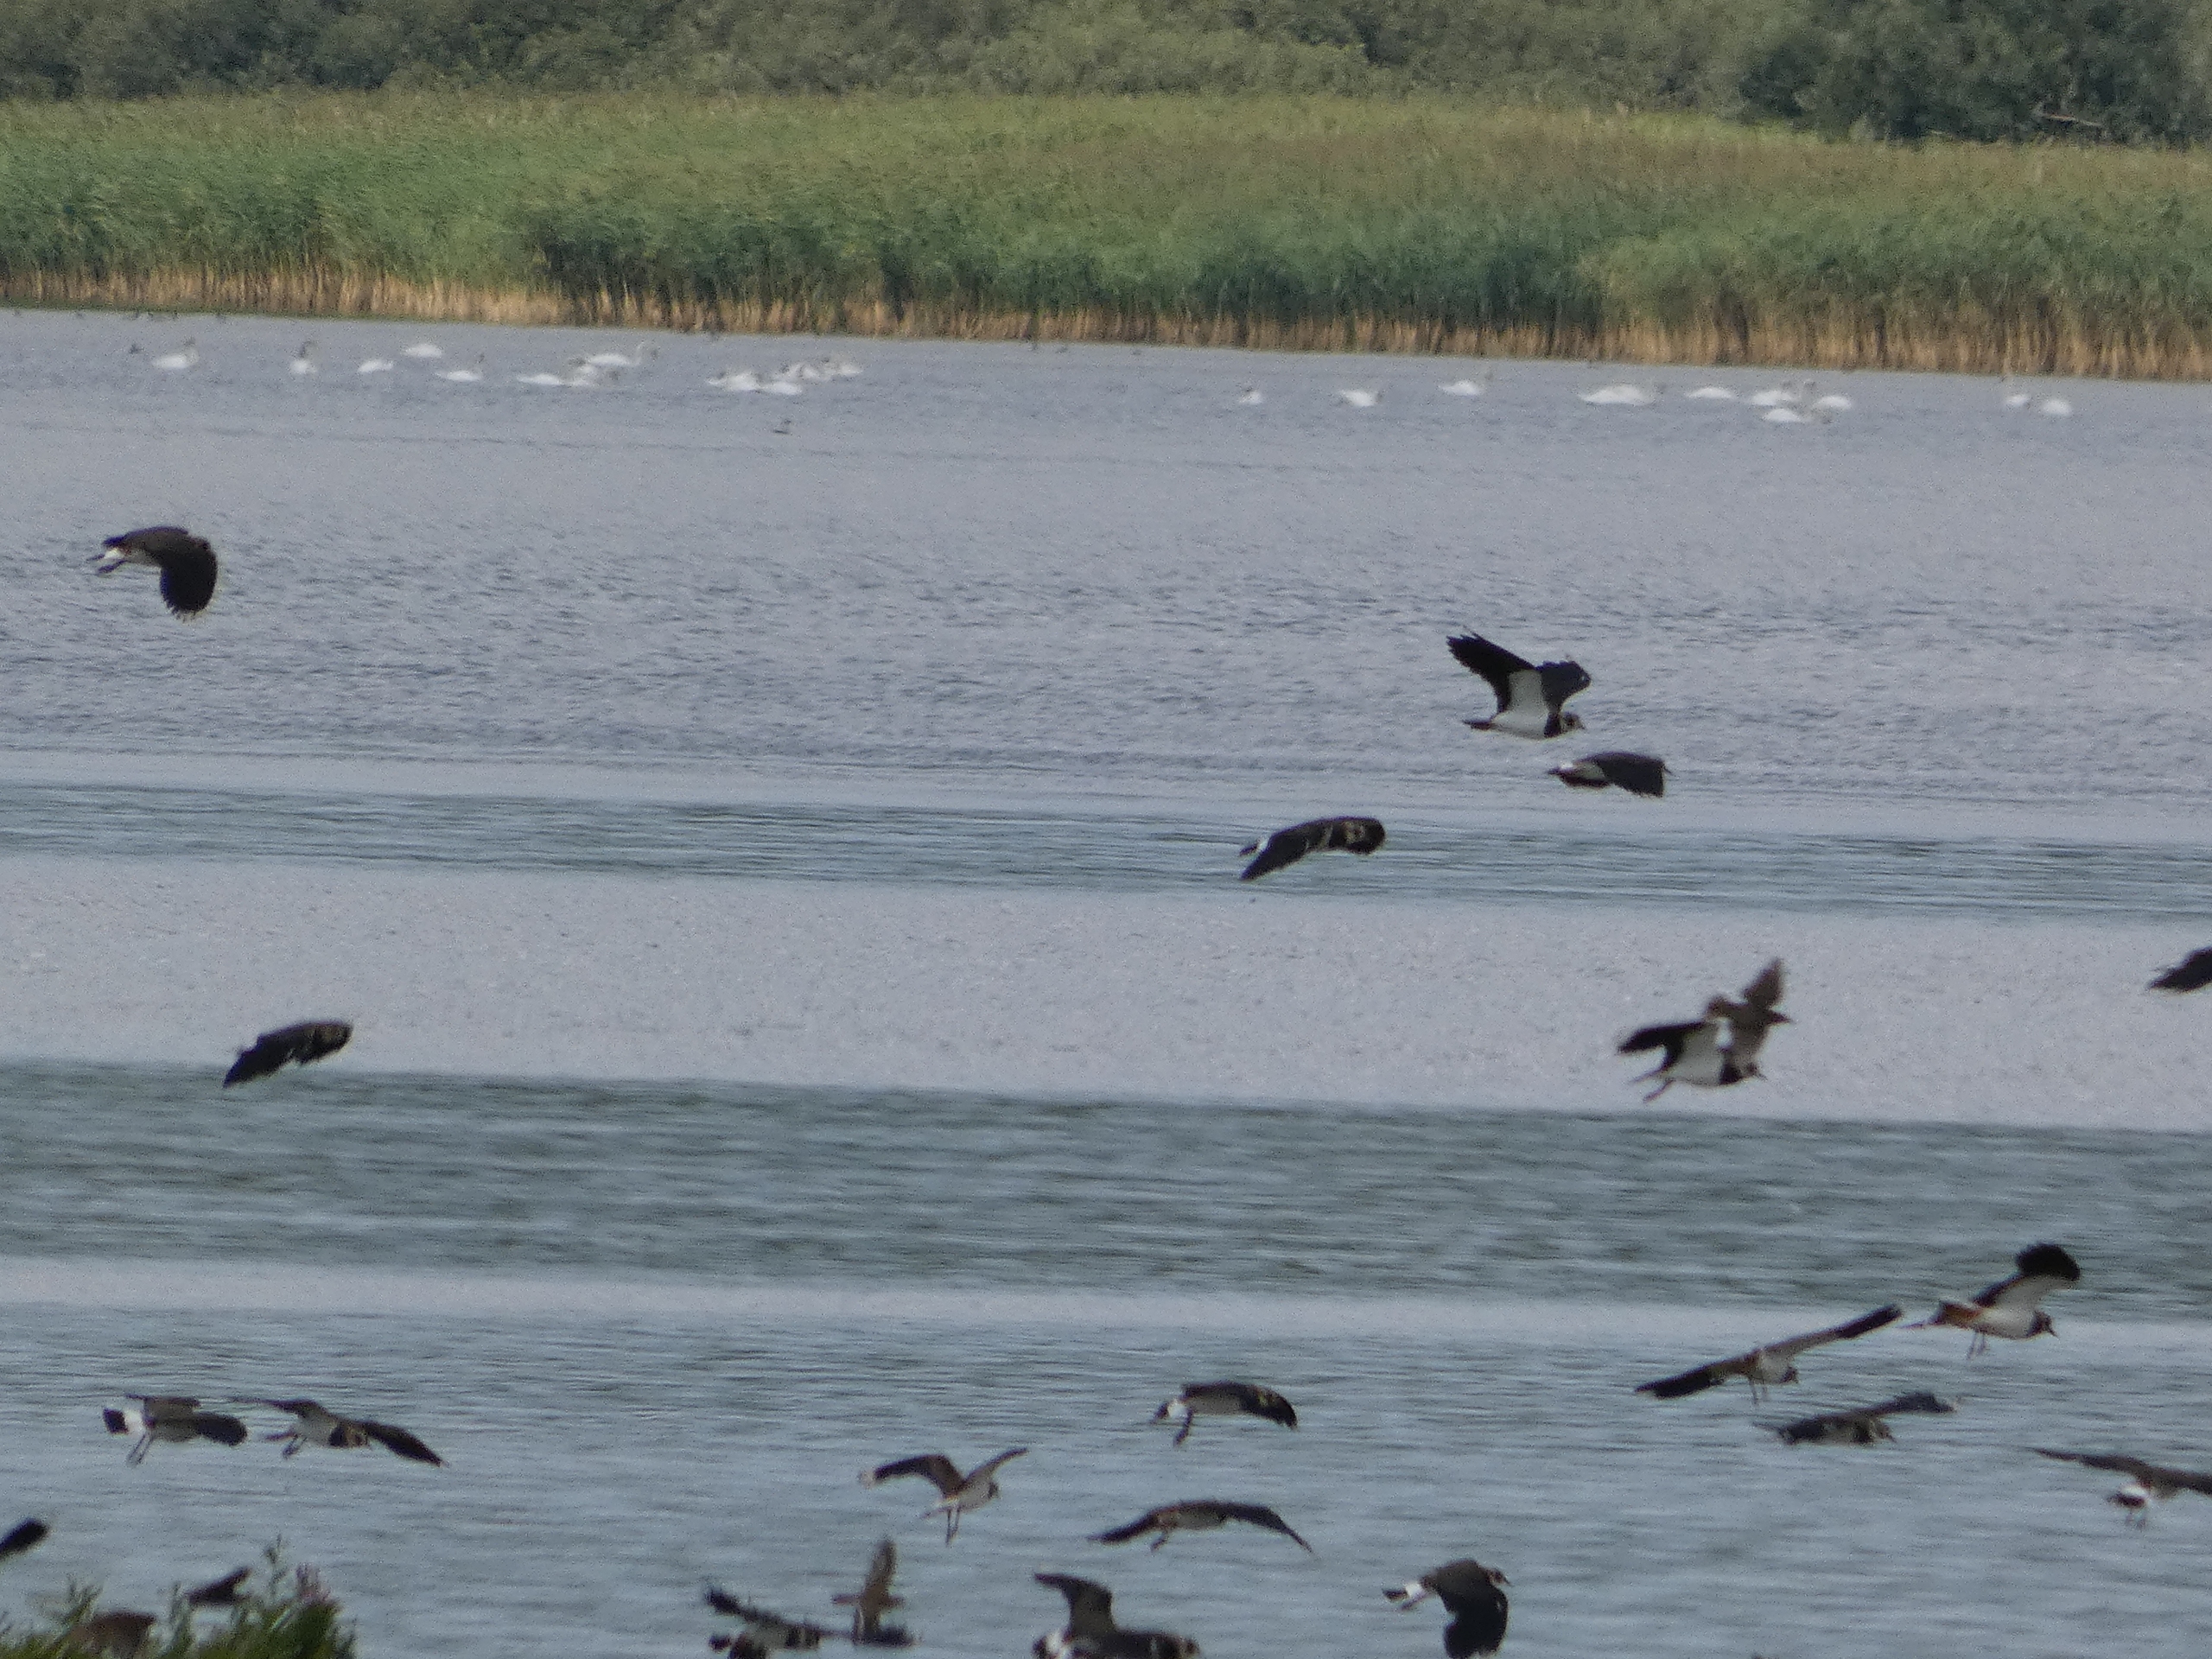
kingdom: Animalia
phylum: Chordata
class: Aves
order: Charadriiformes
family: Charadriidae
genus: Vanellus
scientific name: Vanellus vanellus
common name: Vibe
